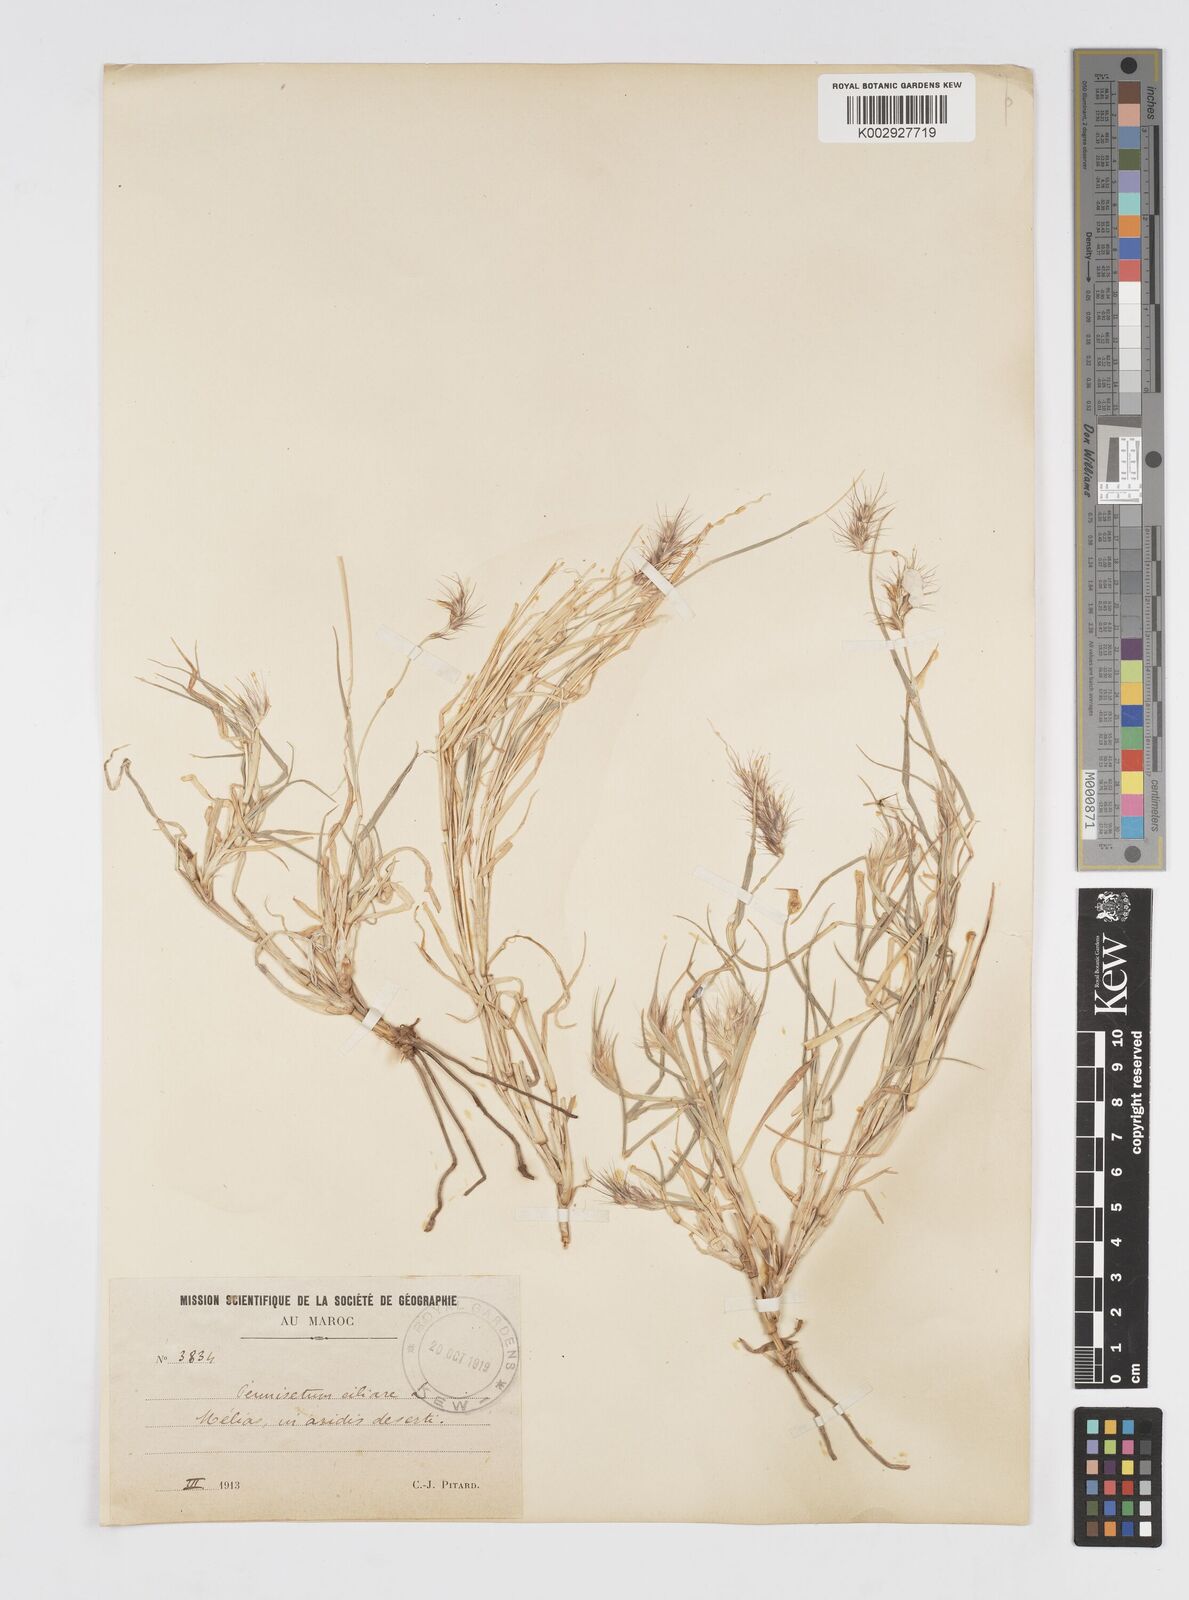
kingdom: Plantae
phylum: Tracheophyta
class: Liliopsida
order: Poales
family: Poaceae
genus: Cenchrus
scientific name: Cenchrus ciliaris
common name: Buffelgrass
